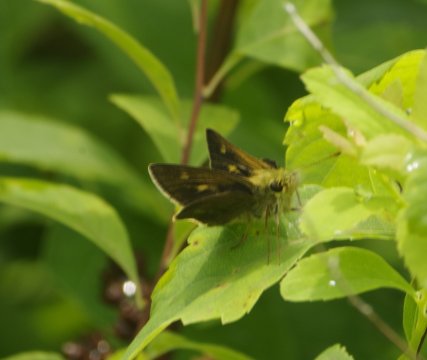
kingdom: Animalia
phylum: Arthropoda
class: Insecta
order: Lepidoptera
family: Hesperiidae
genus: Polites
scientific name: Polites egeremet
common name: Northern Broken-Dash
